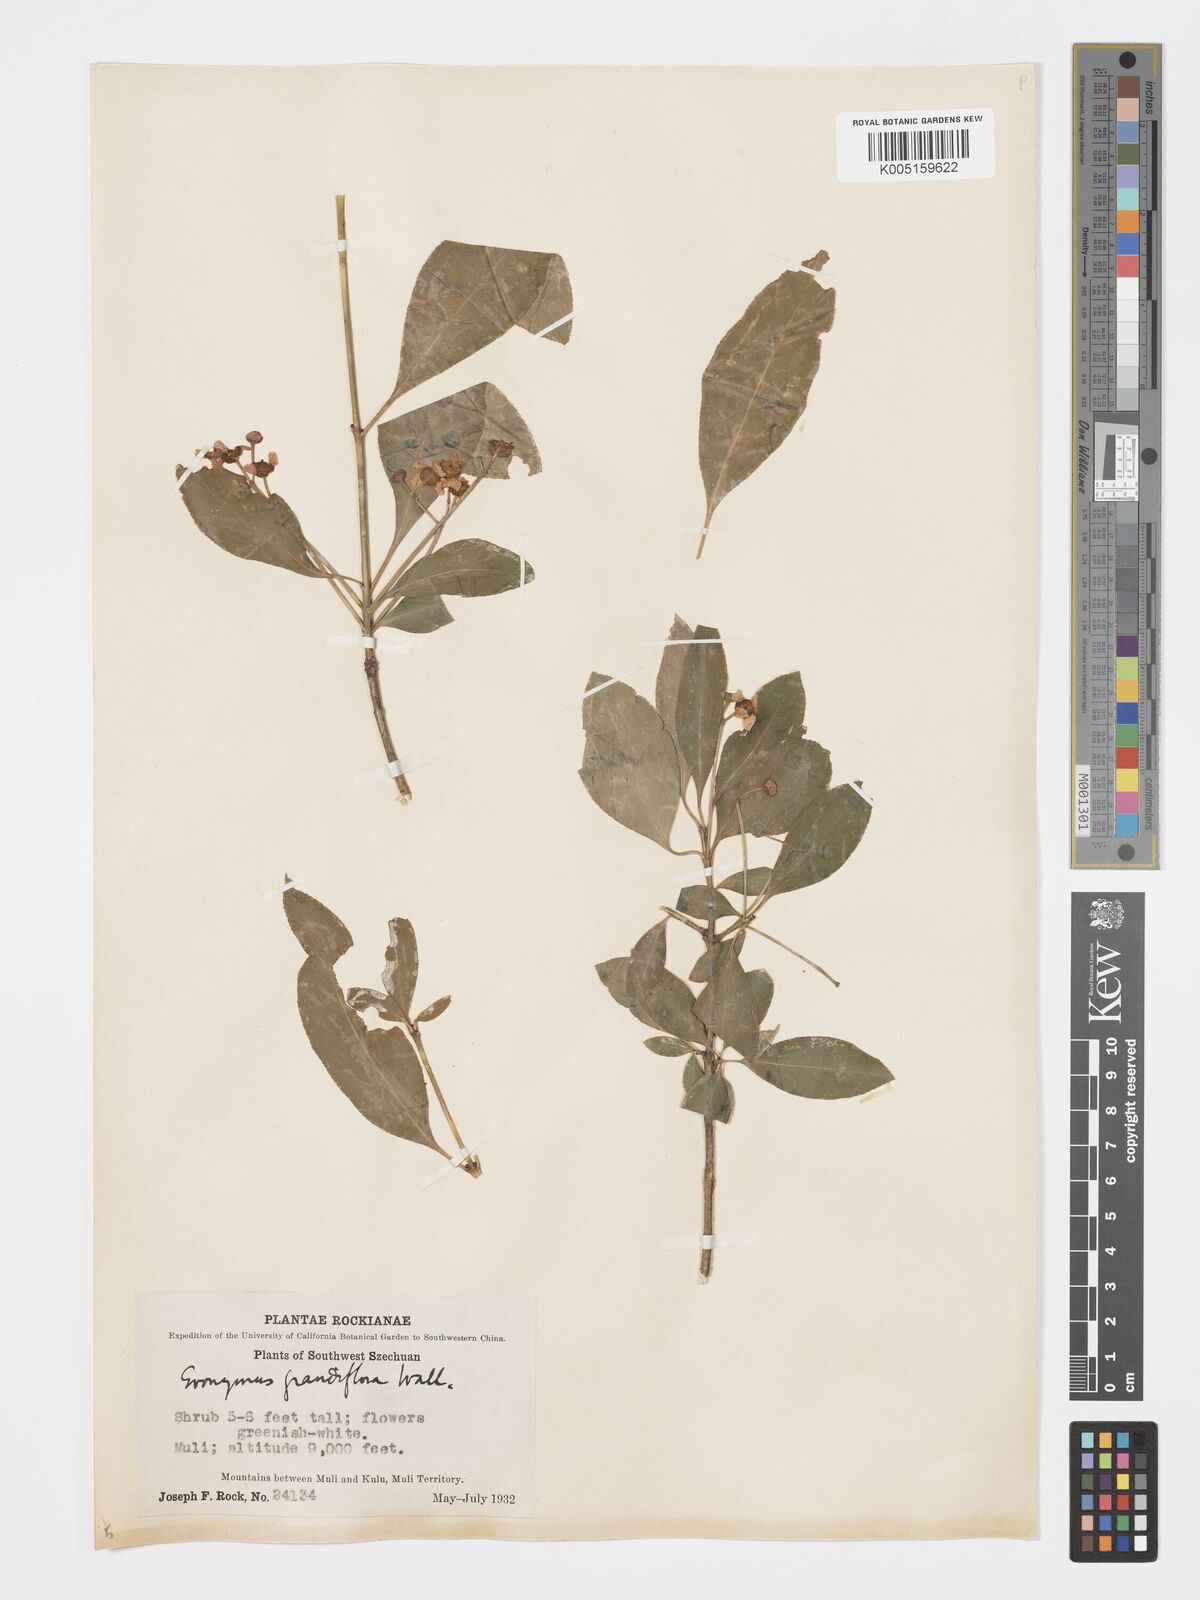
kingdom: Plantae
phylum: Tracheophyta
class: Magnoliopsida
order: Celastrales
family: Celastraceae
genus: Euonymus
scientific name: Euonymus grandiflorus
